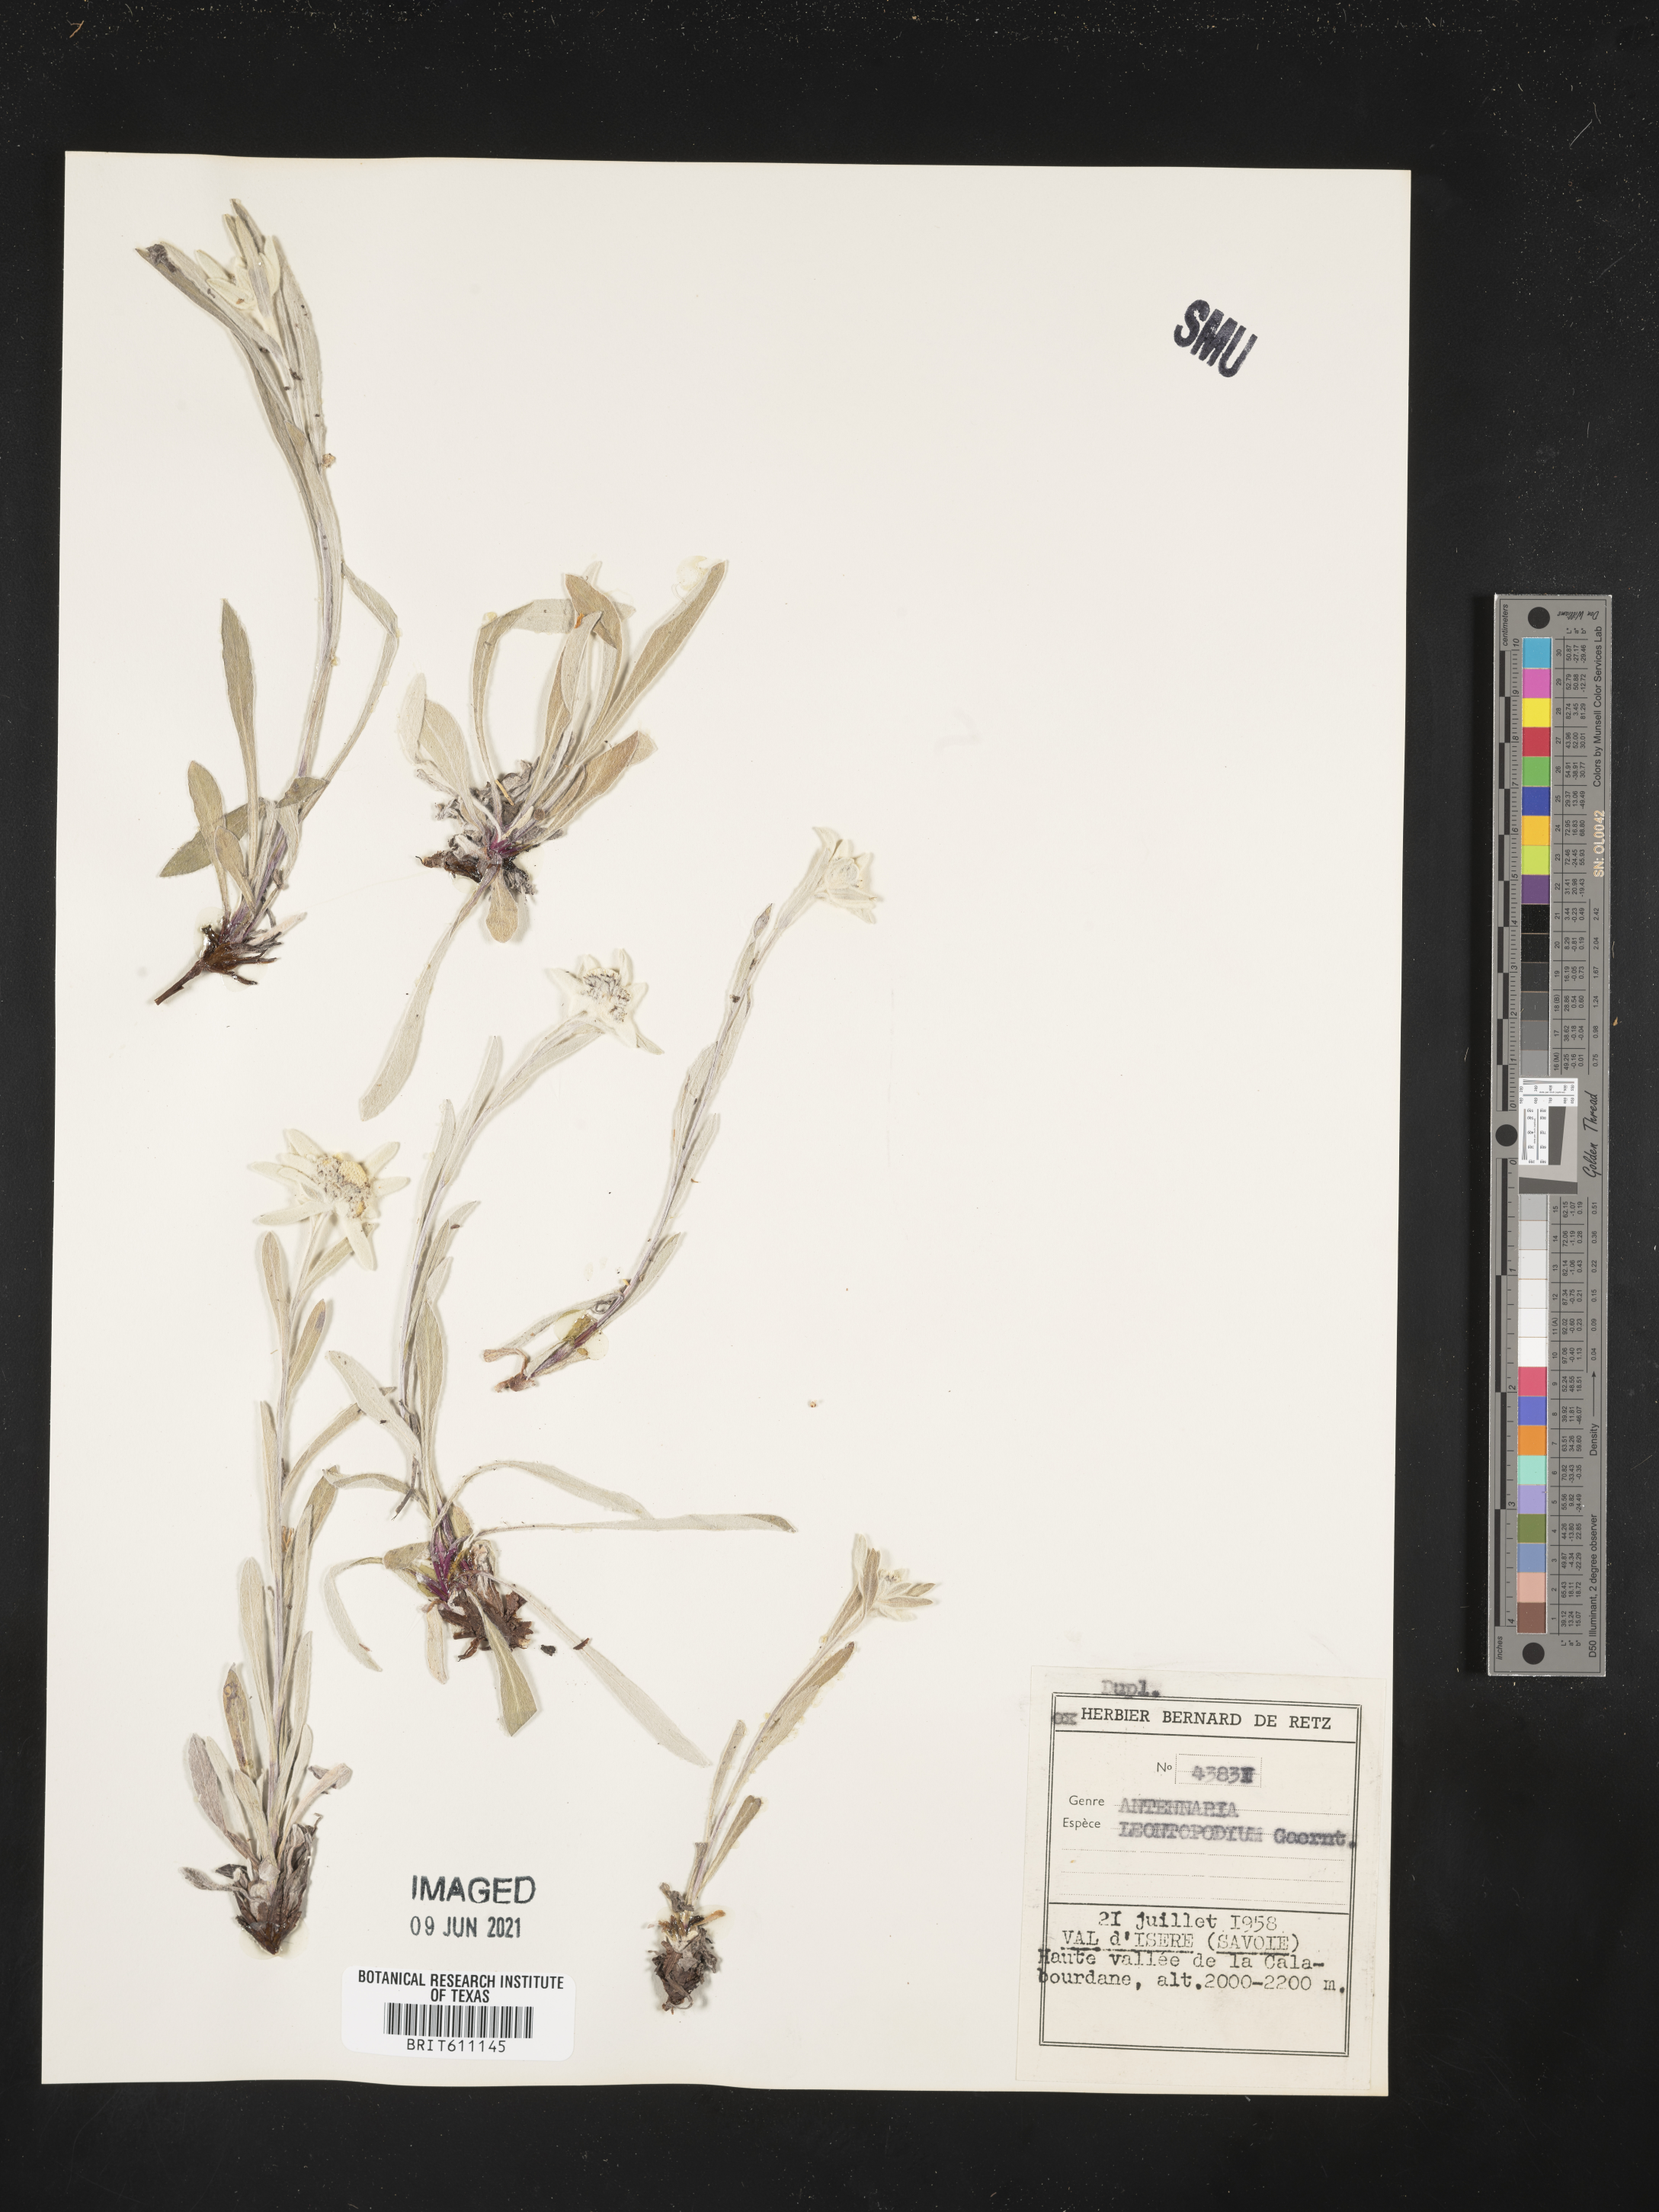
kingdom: Plantae
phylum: Tracheophyta
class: Magnoliopsida
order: Asterales
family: Asteraceae
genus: Leontopodium
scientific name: Leontopodium nivale
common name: Edelweiss
